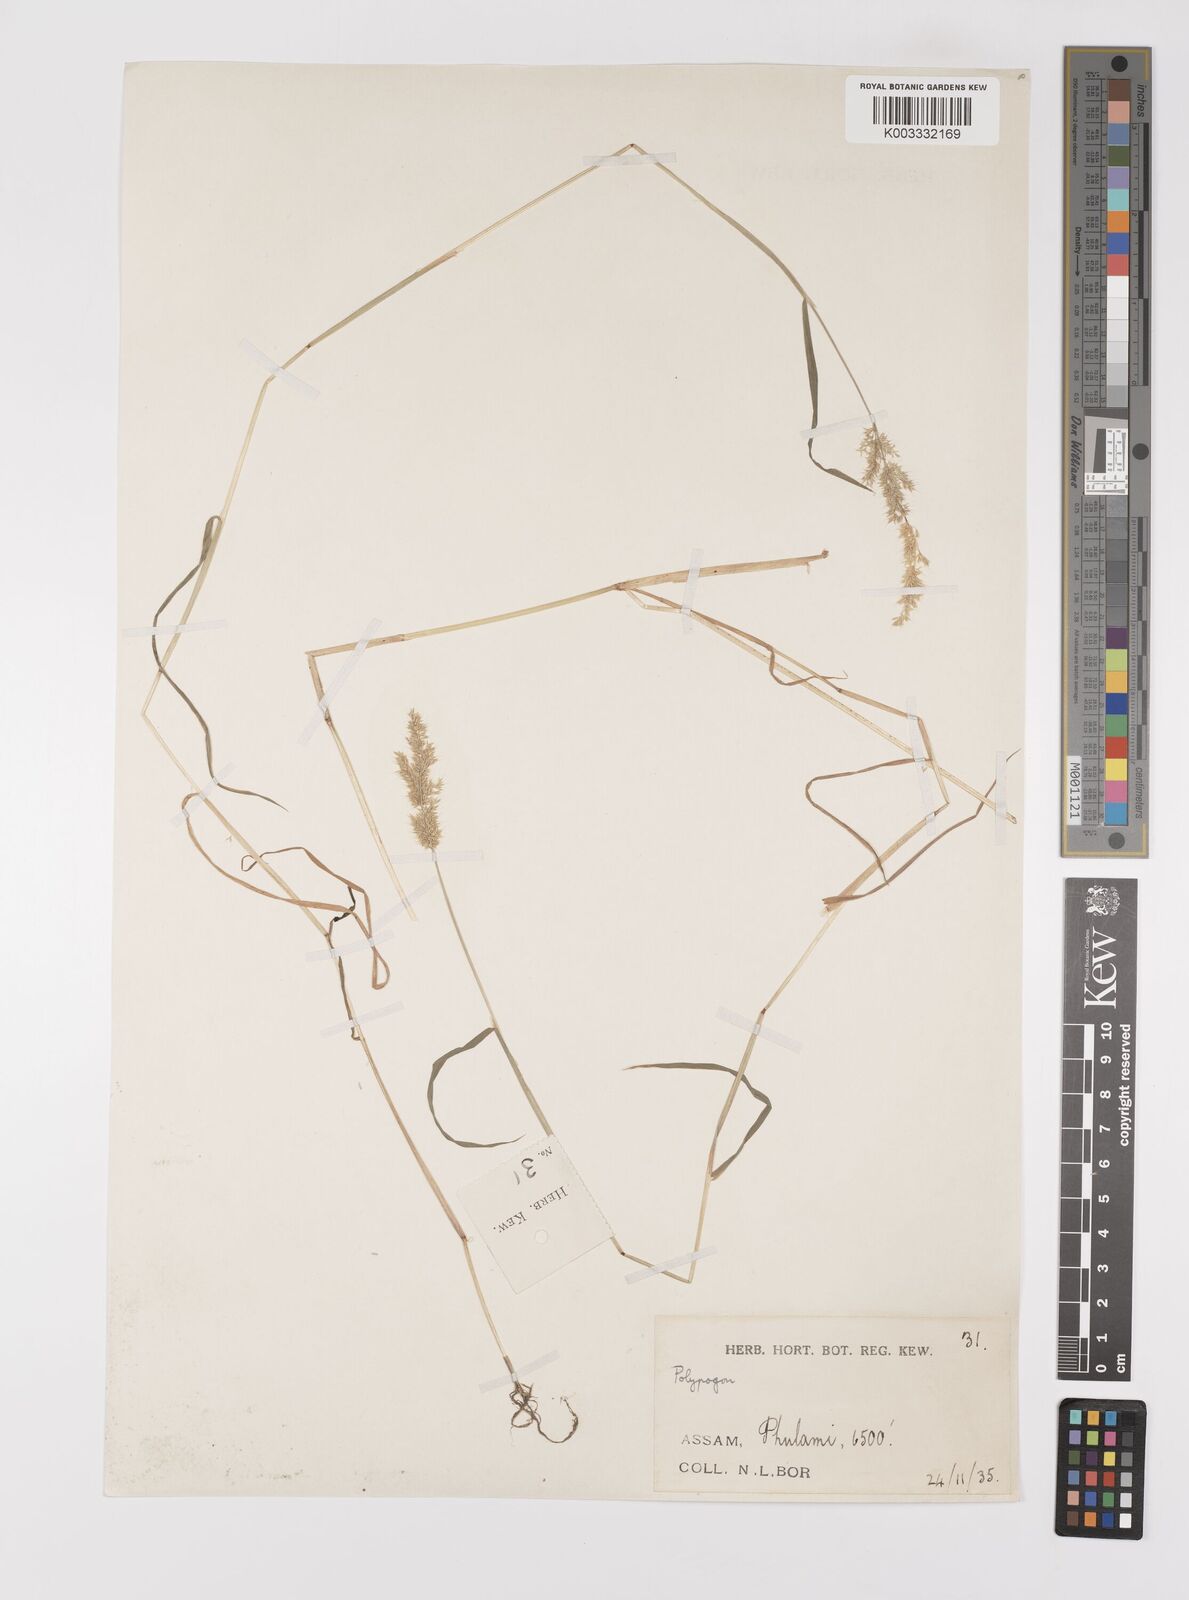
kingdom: Plantae
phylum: Tracheophyta
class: Liliopsida
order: Poales
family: Poaceae
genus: Polypogon
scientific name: Polypogon fugax
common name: Asia minor bluegrass
